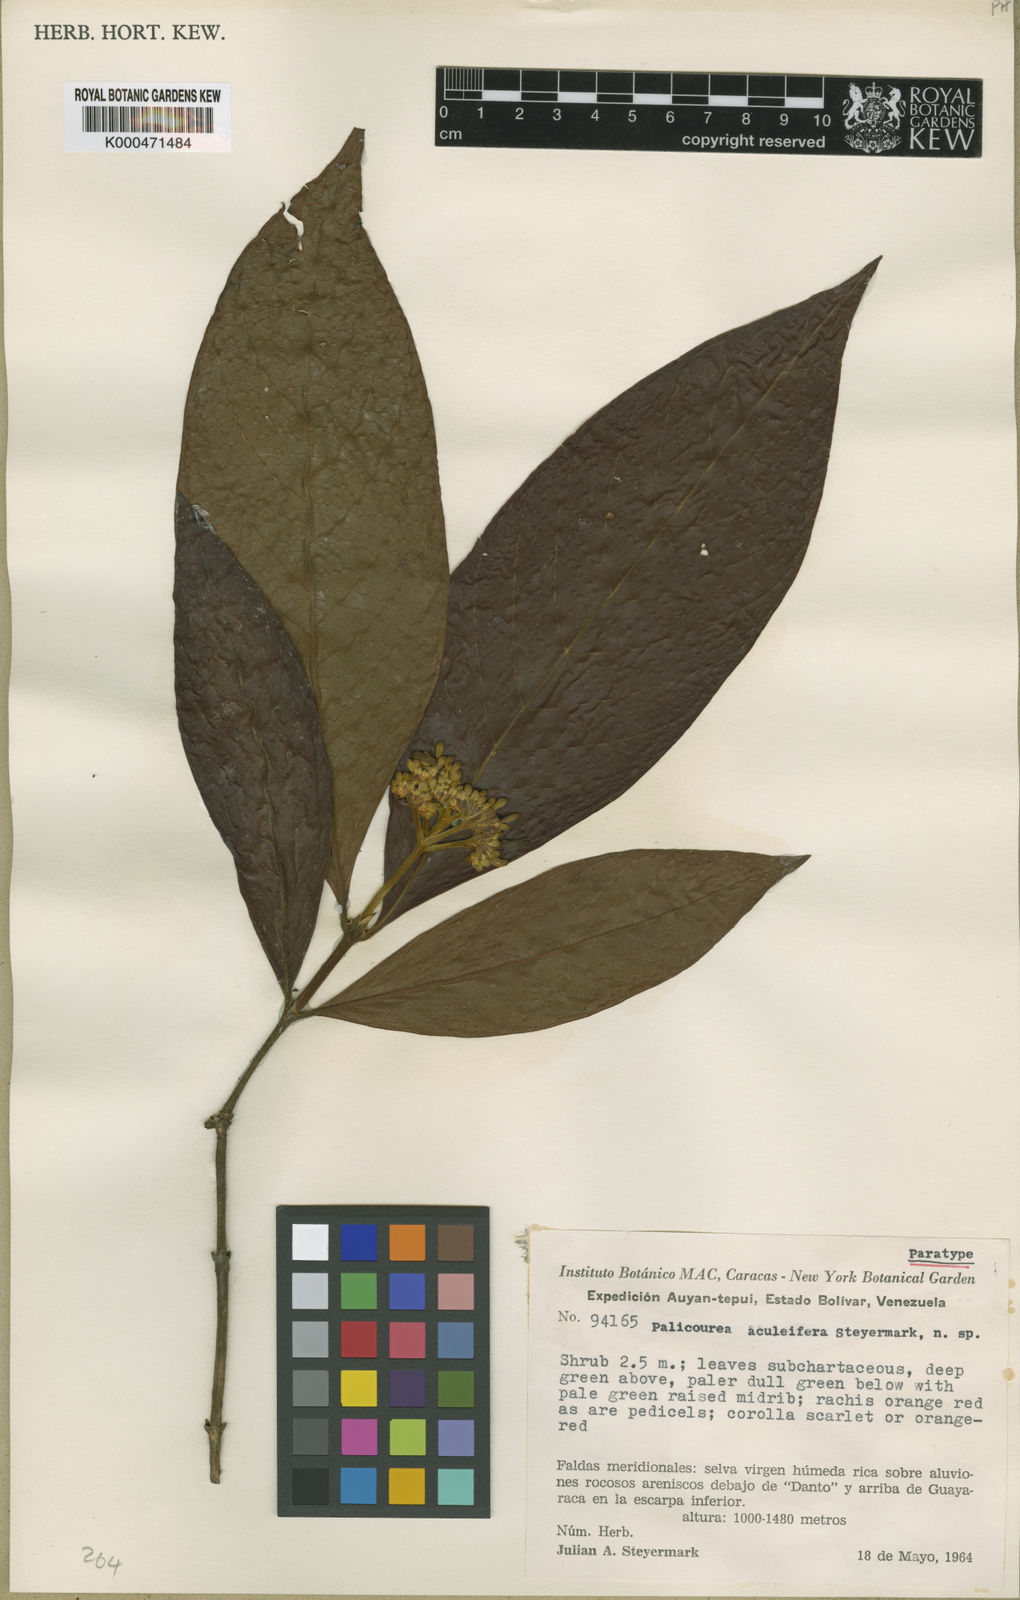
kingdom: Plantae
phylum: Tracheophyta
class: Magnoliopsida
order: Gentianales
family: Rubiaceae
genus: Palicourea
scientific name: Palicourea longistipulata
